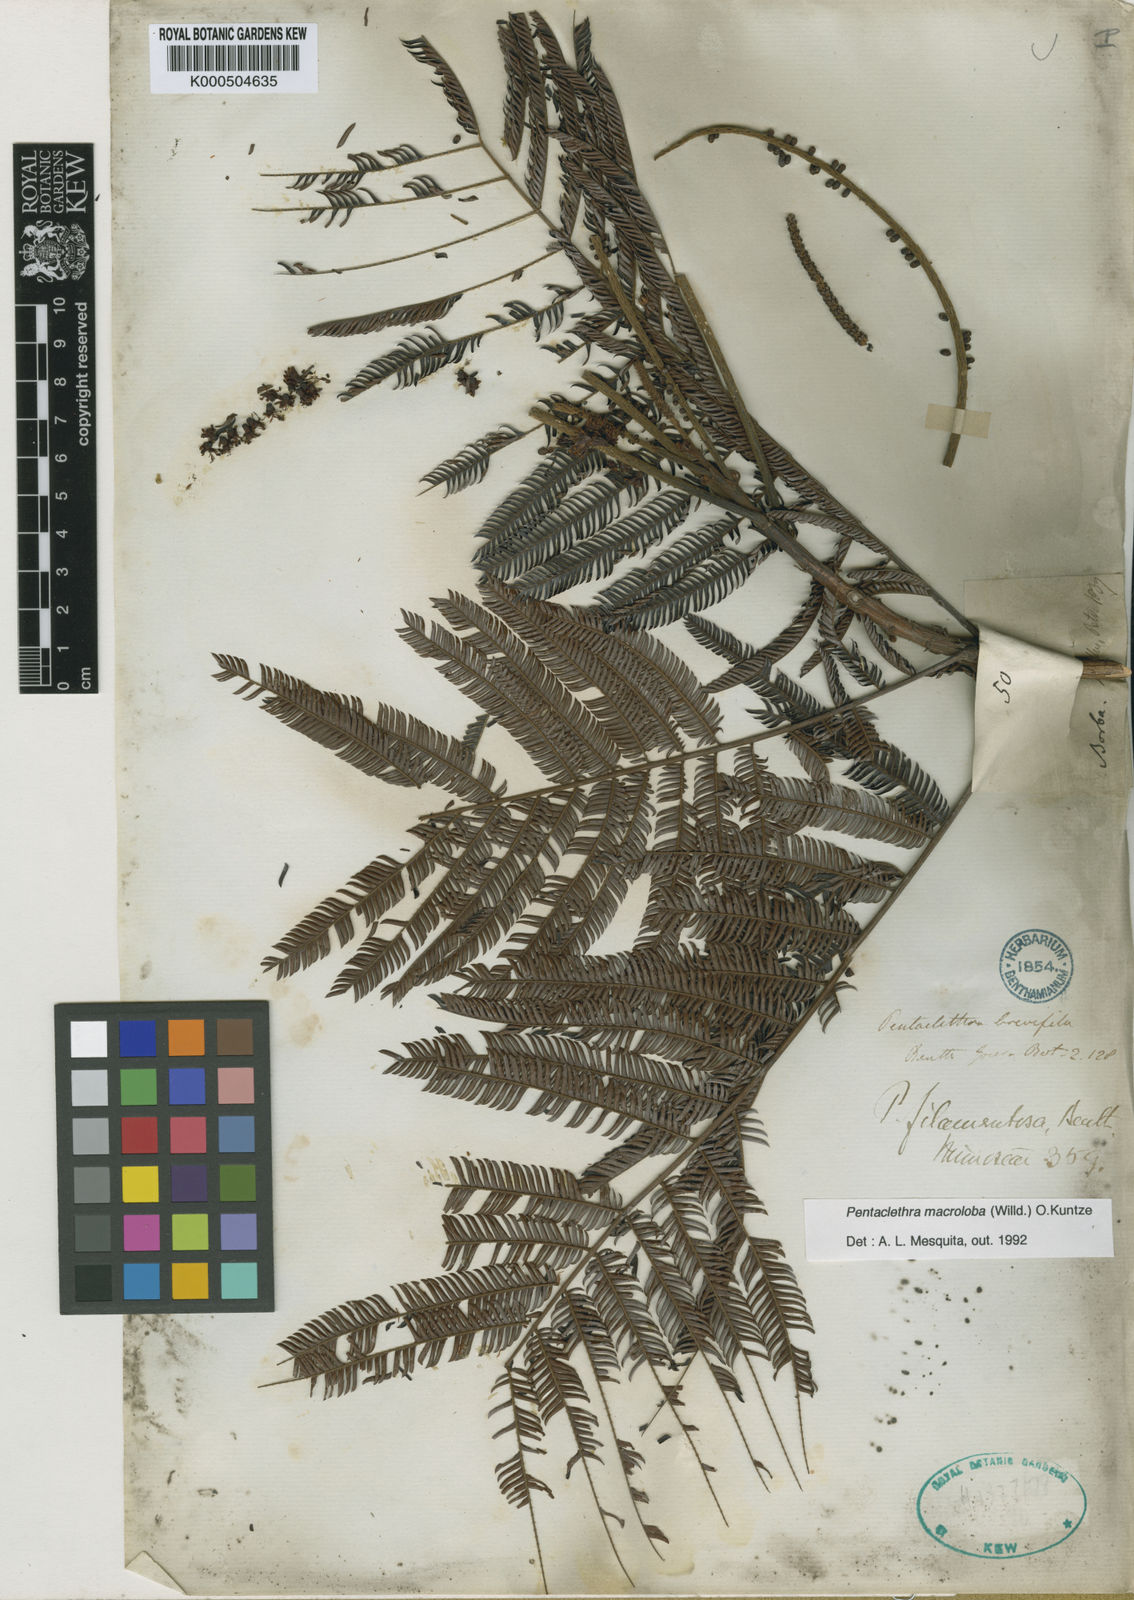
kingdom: Plantae
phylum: Tracheophyta
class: Magnoliopsida
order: Fabales
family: Fabaceae
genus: Pentaclethra
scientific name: Pentaclethra macroloba
